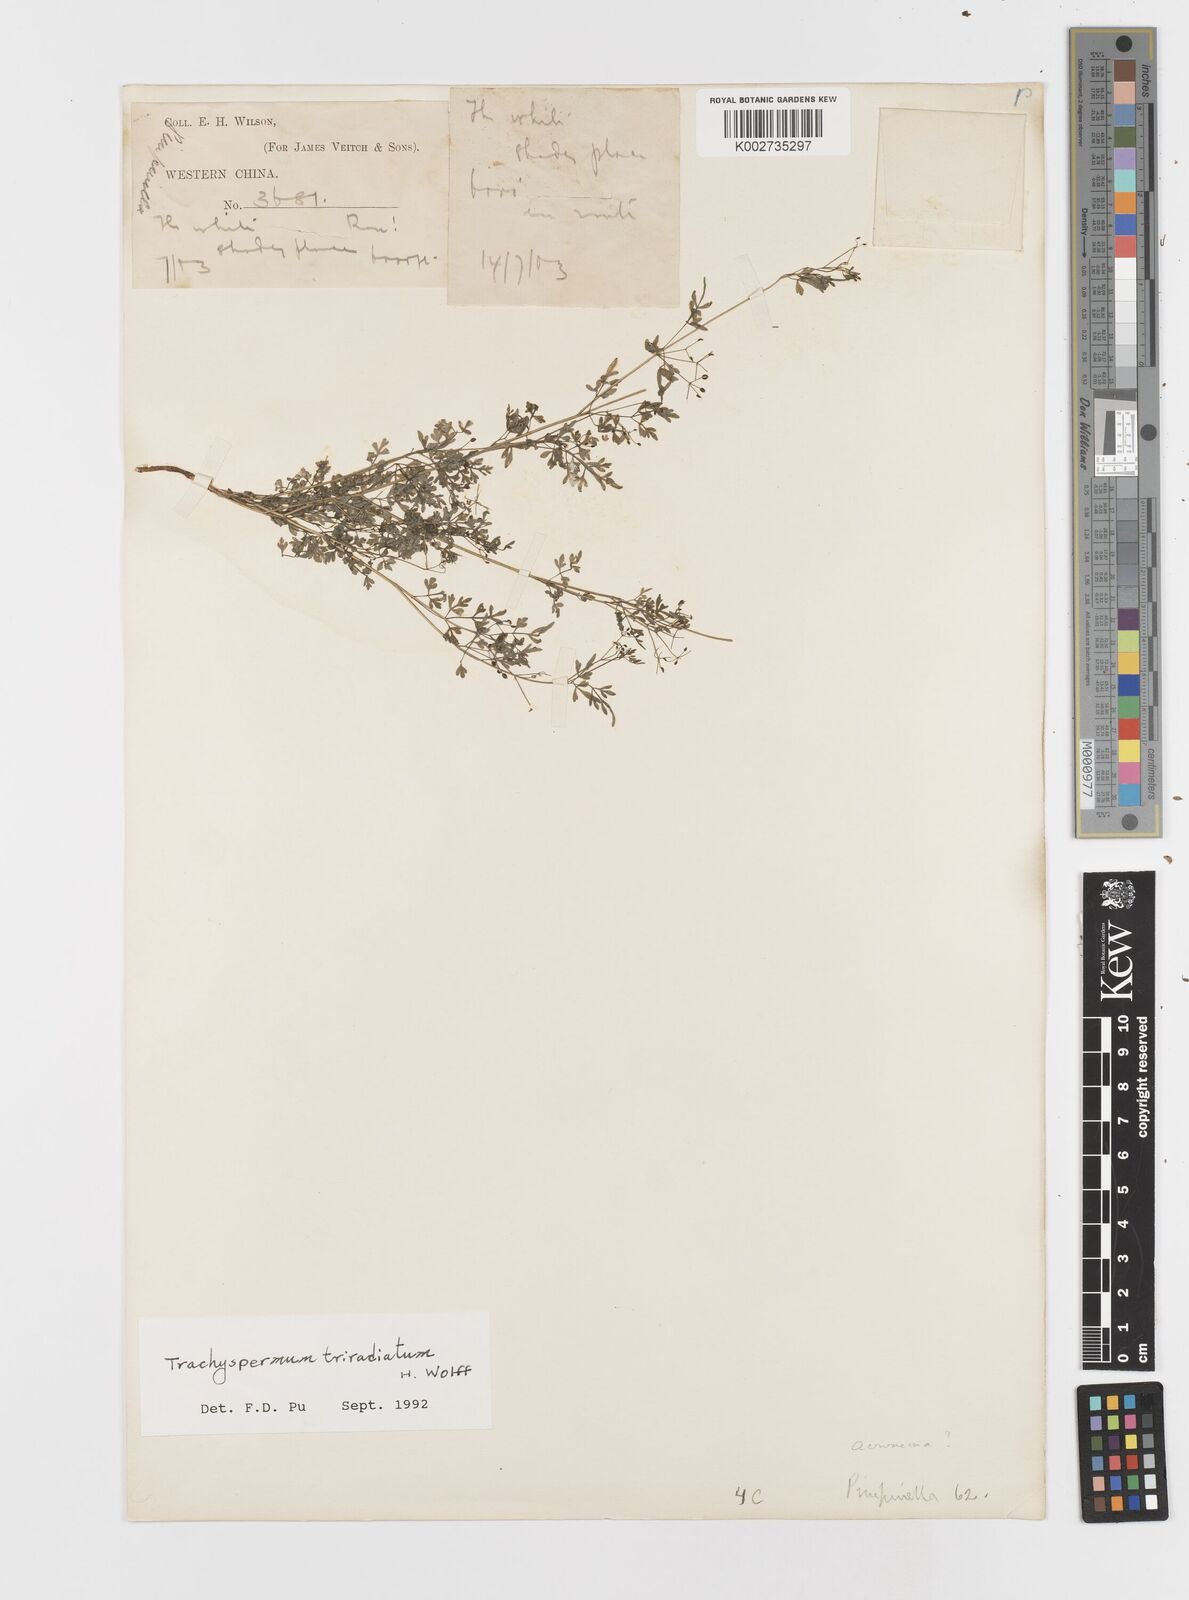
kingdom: Plantae
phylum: Tracheophyta
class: Magnoliopsida
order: Apiales
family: Apiaceae
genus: Trachyspermum
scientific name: Trachyspermum pimpinelloides
